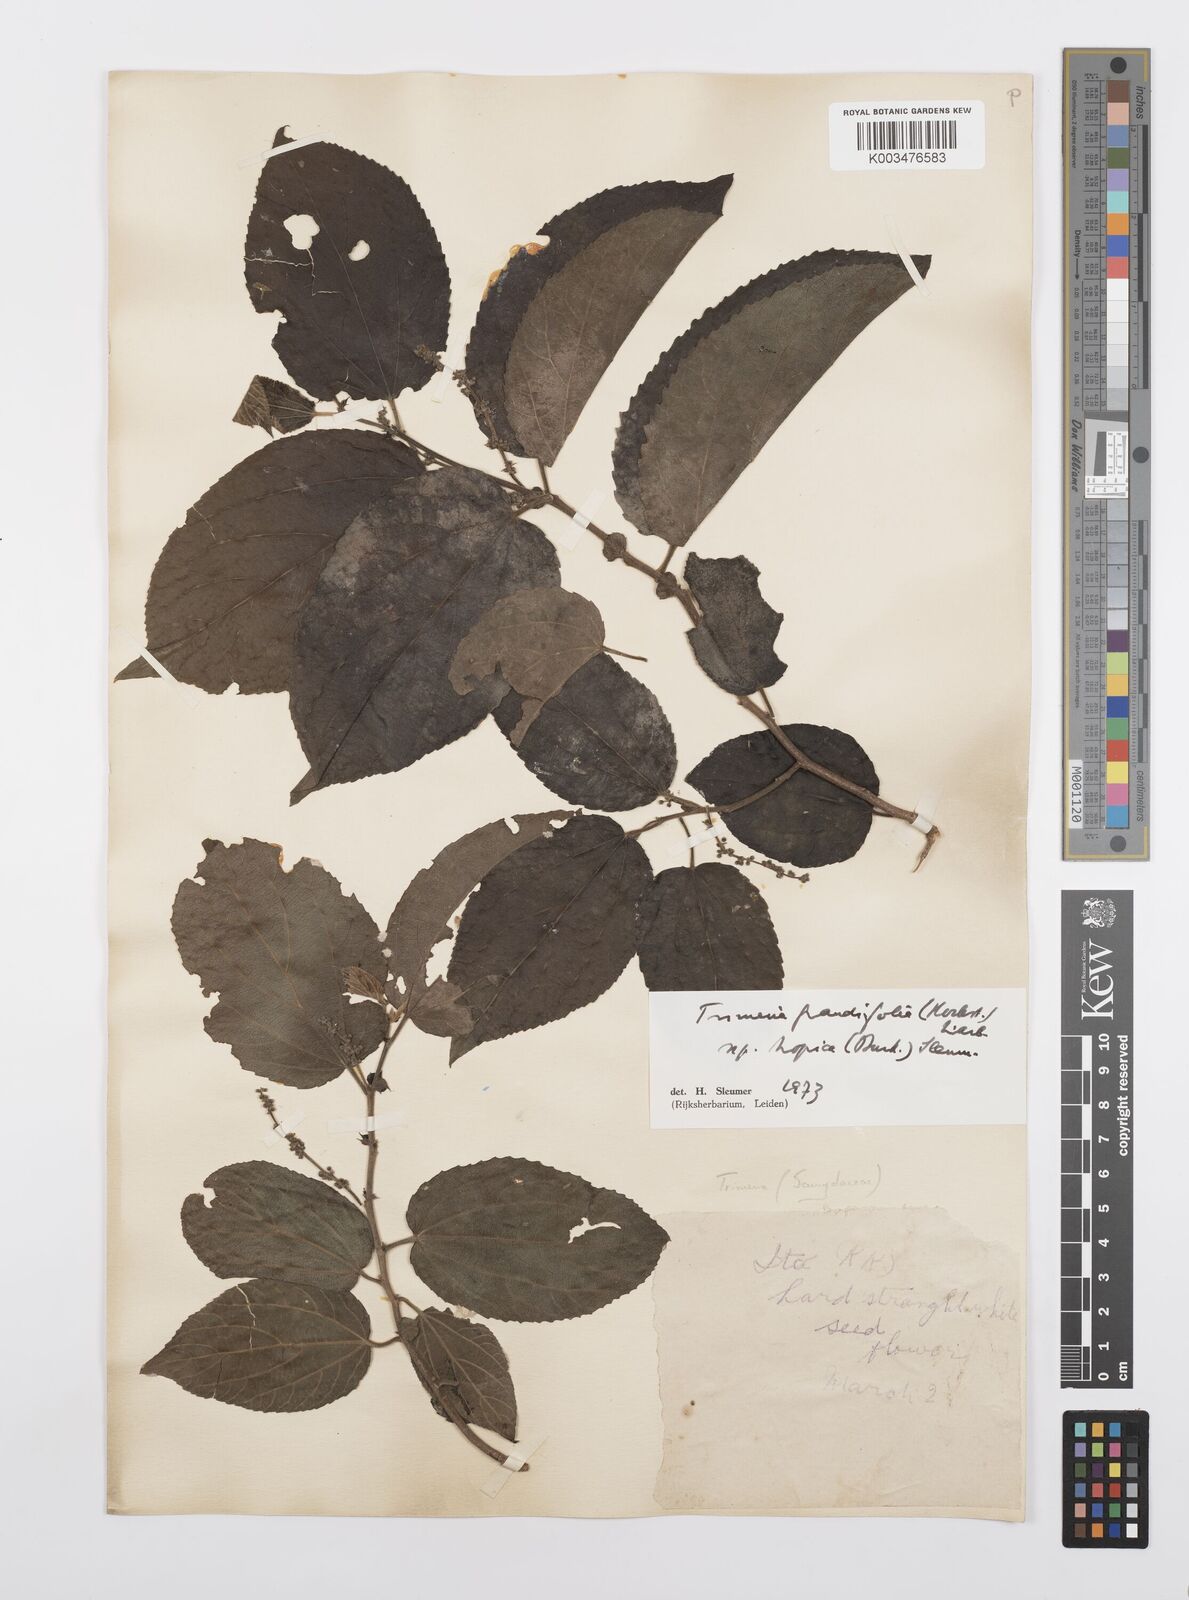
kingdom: Plantae
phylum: Tracheophyta
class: Magnoliopsida
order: Malpighiales
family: Salicaceae
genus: Trimeria
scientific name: Trimeria grandifolia
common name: Wild mulberry
